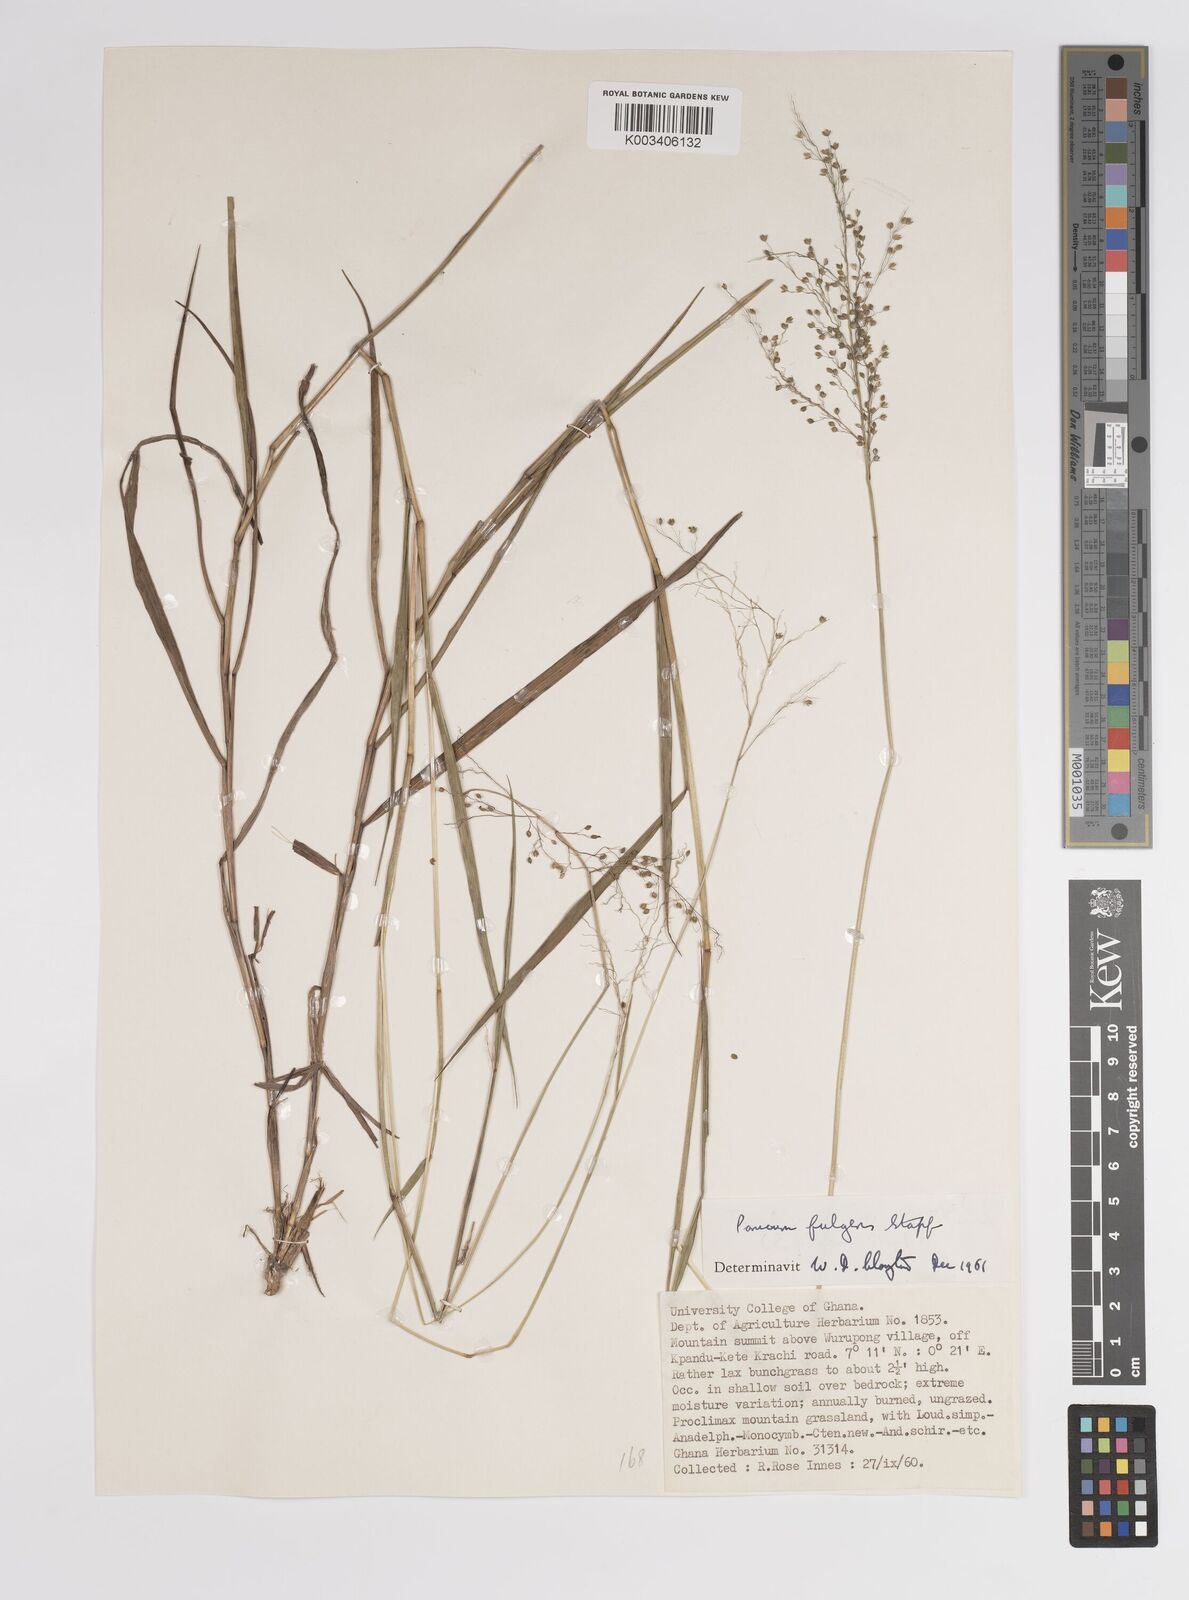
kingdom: Plantae
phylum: Tracheophyta
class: Liliopsida
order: Poales
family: Poaceae
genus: Trichanthecium
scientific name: Trichanthecium nervatum
